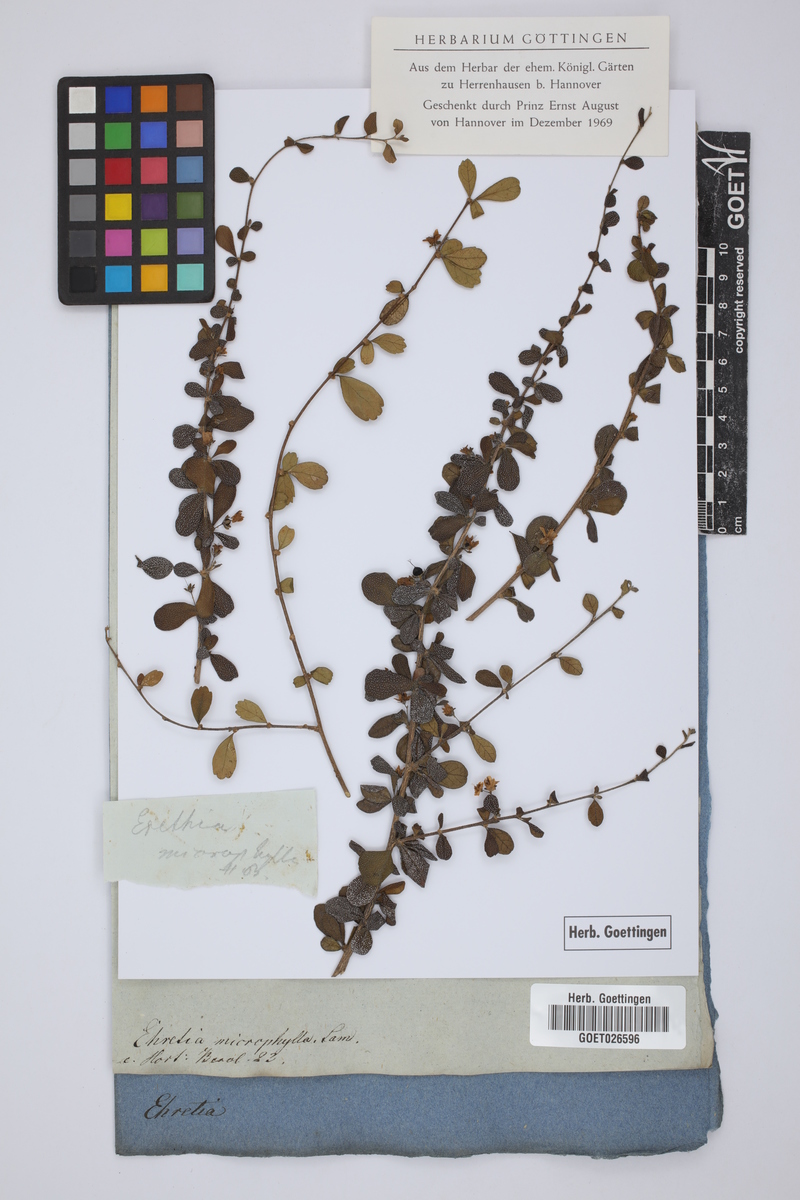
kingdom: Plantae
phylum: Tracheophyta
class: Magnoliopsida
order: Boraginales
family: Ehretiaceae
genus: Ehretia
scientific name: Ehretia microphylla
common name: Fukien-tea
